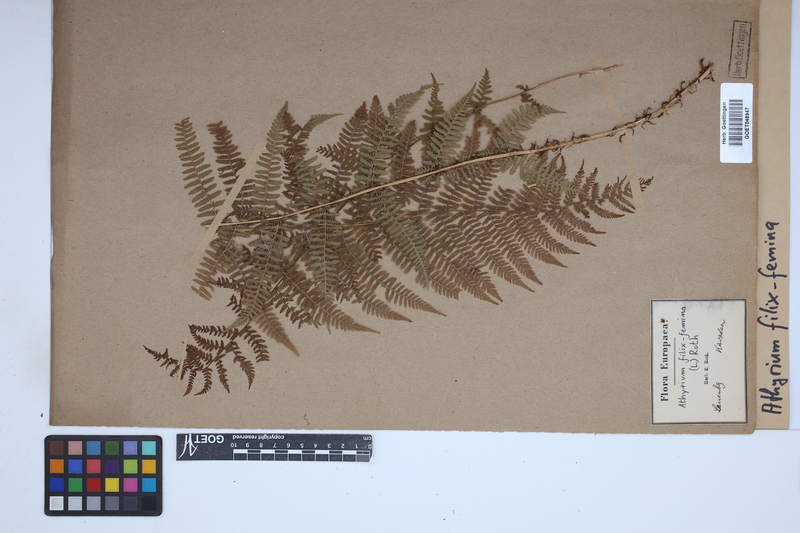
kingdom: Plantae
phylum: Tracheophyta
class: Polypodiopsida
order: Polypodiales
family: Athyriaceae
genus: Athyrium
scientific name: Athyrium filix-femina
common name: Lady fern
